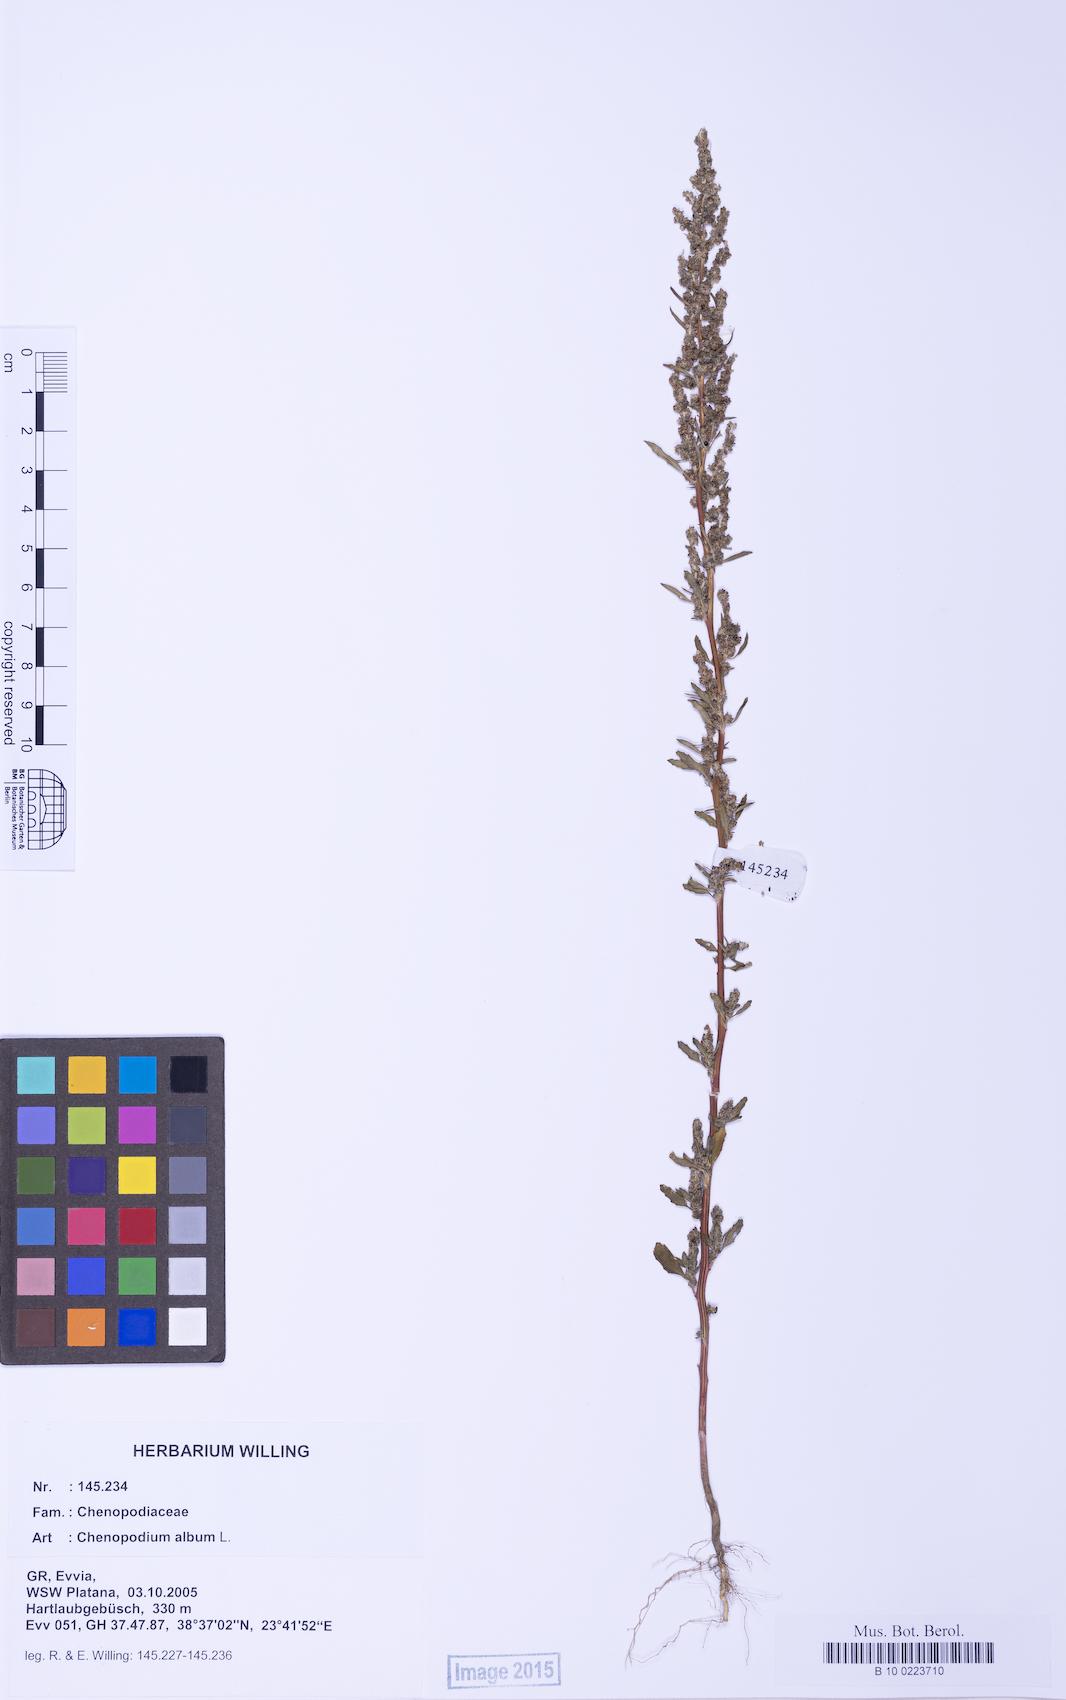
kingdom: Plantae
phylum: Tracheophyta
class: Magnoliopsida
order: Caryophyllales
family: Amaranthaceae
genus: Chenopodium
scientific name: Chenopodium album
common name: Fat-hen
